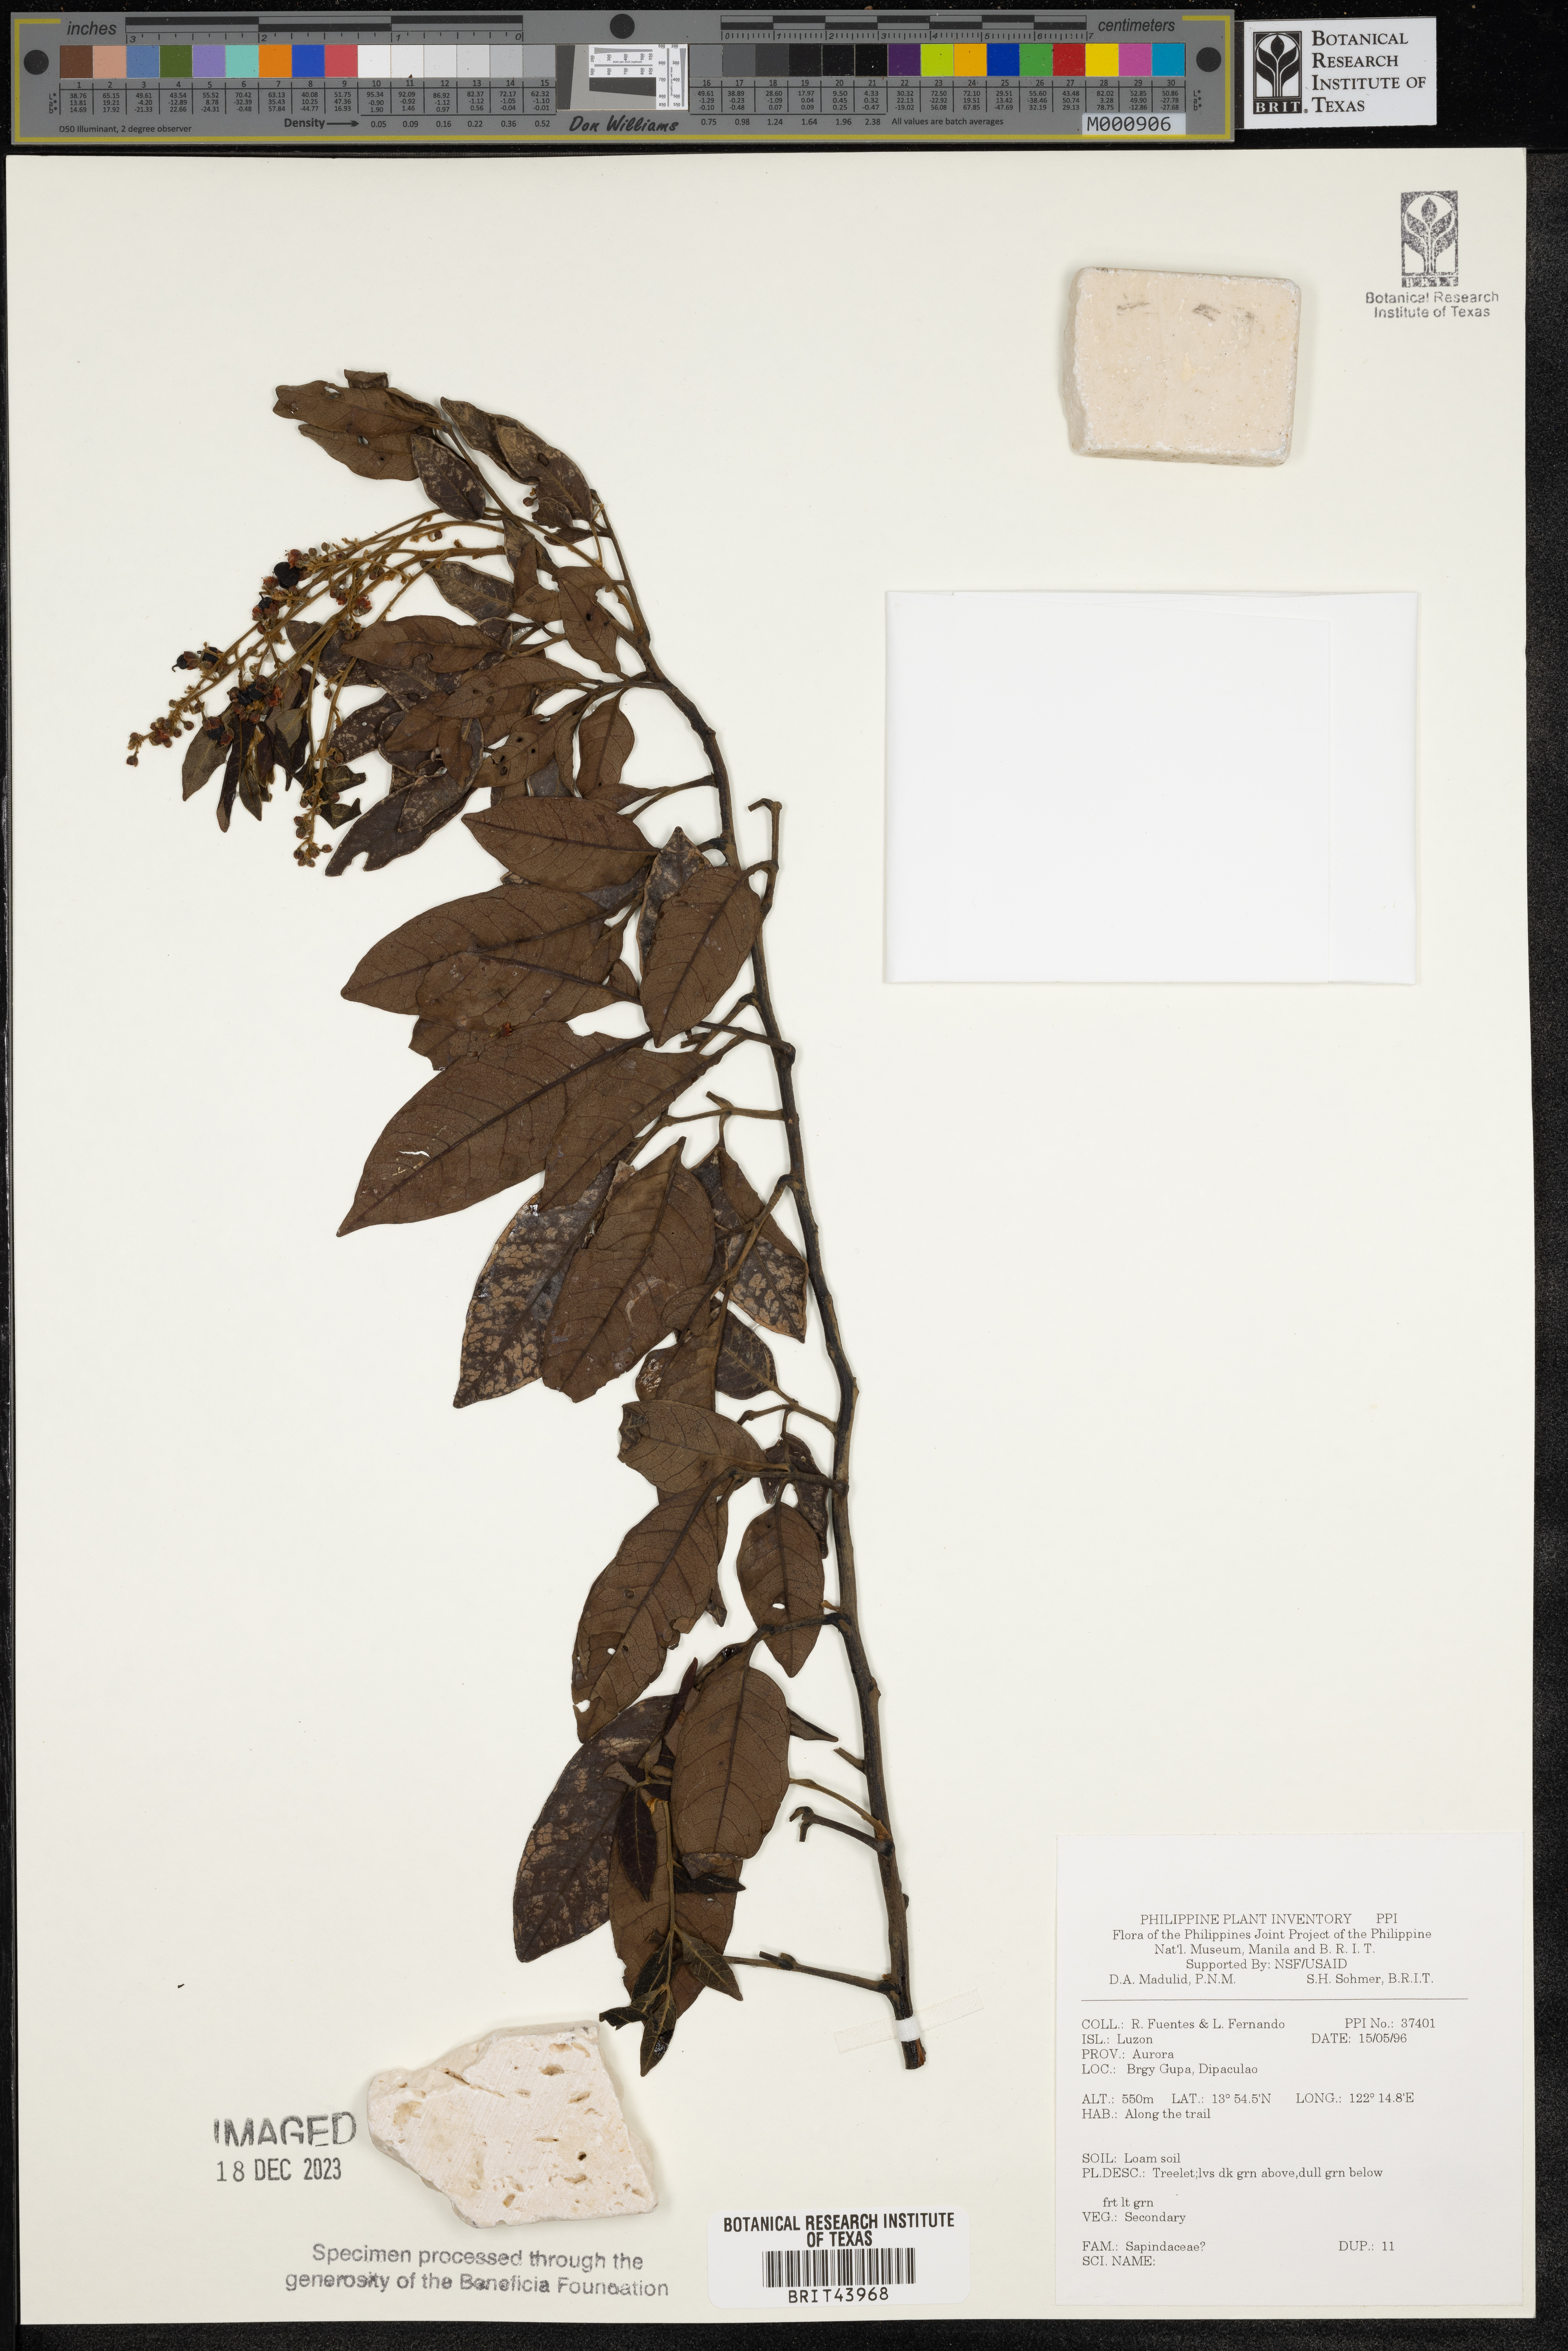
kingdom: Plantae
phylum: Tracheophyta
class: Magnoliopsida
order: Sapindales
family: Sapindaceae
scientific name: Sapindaceae
